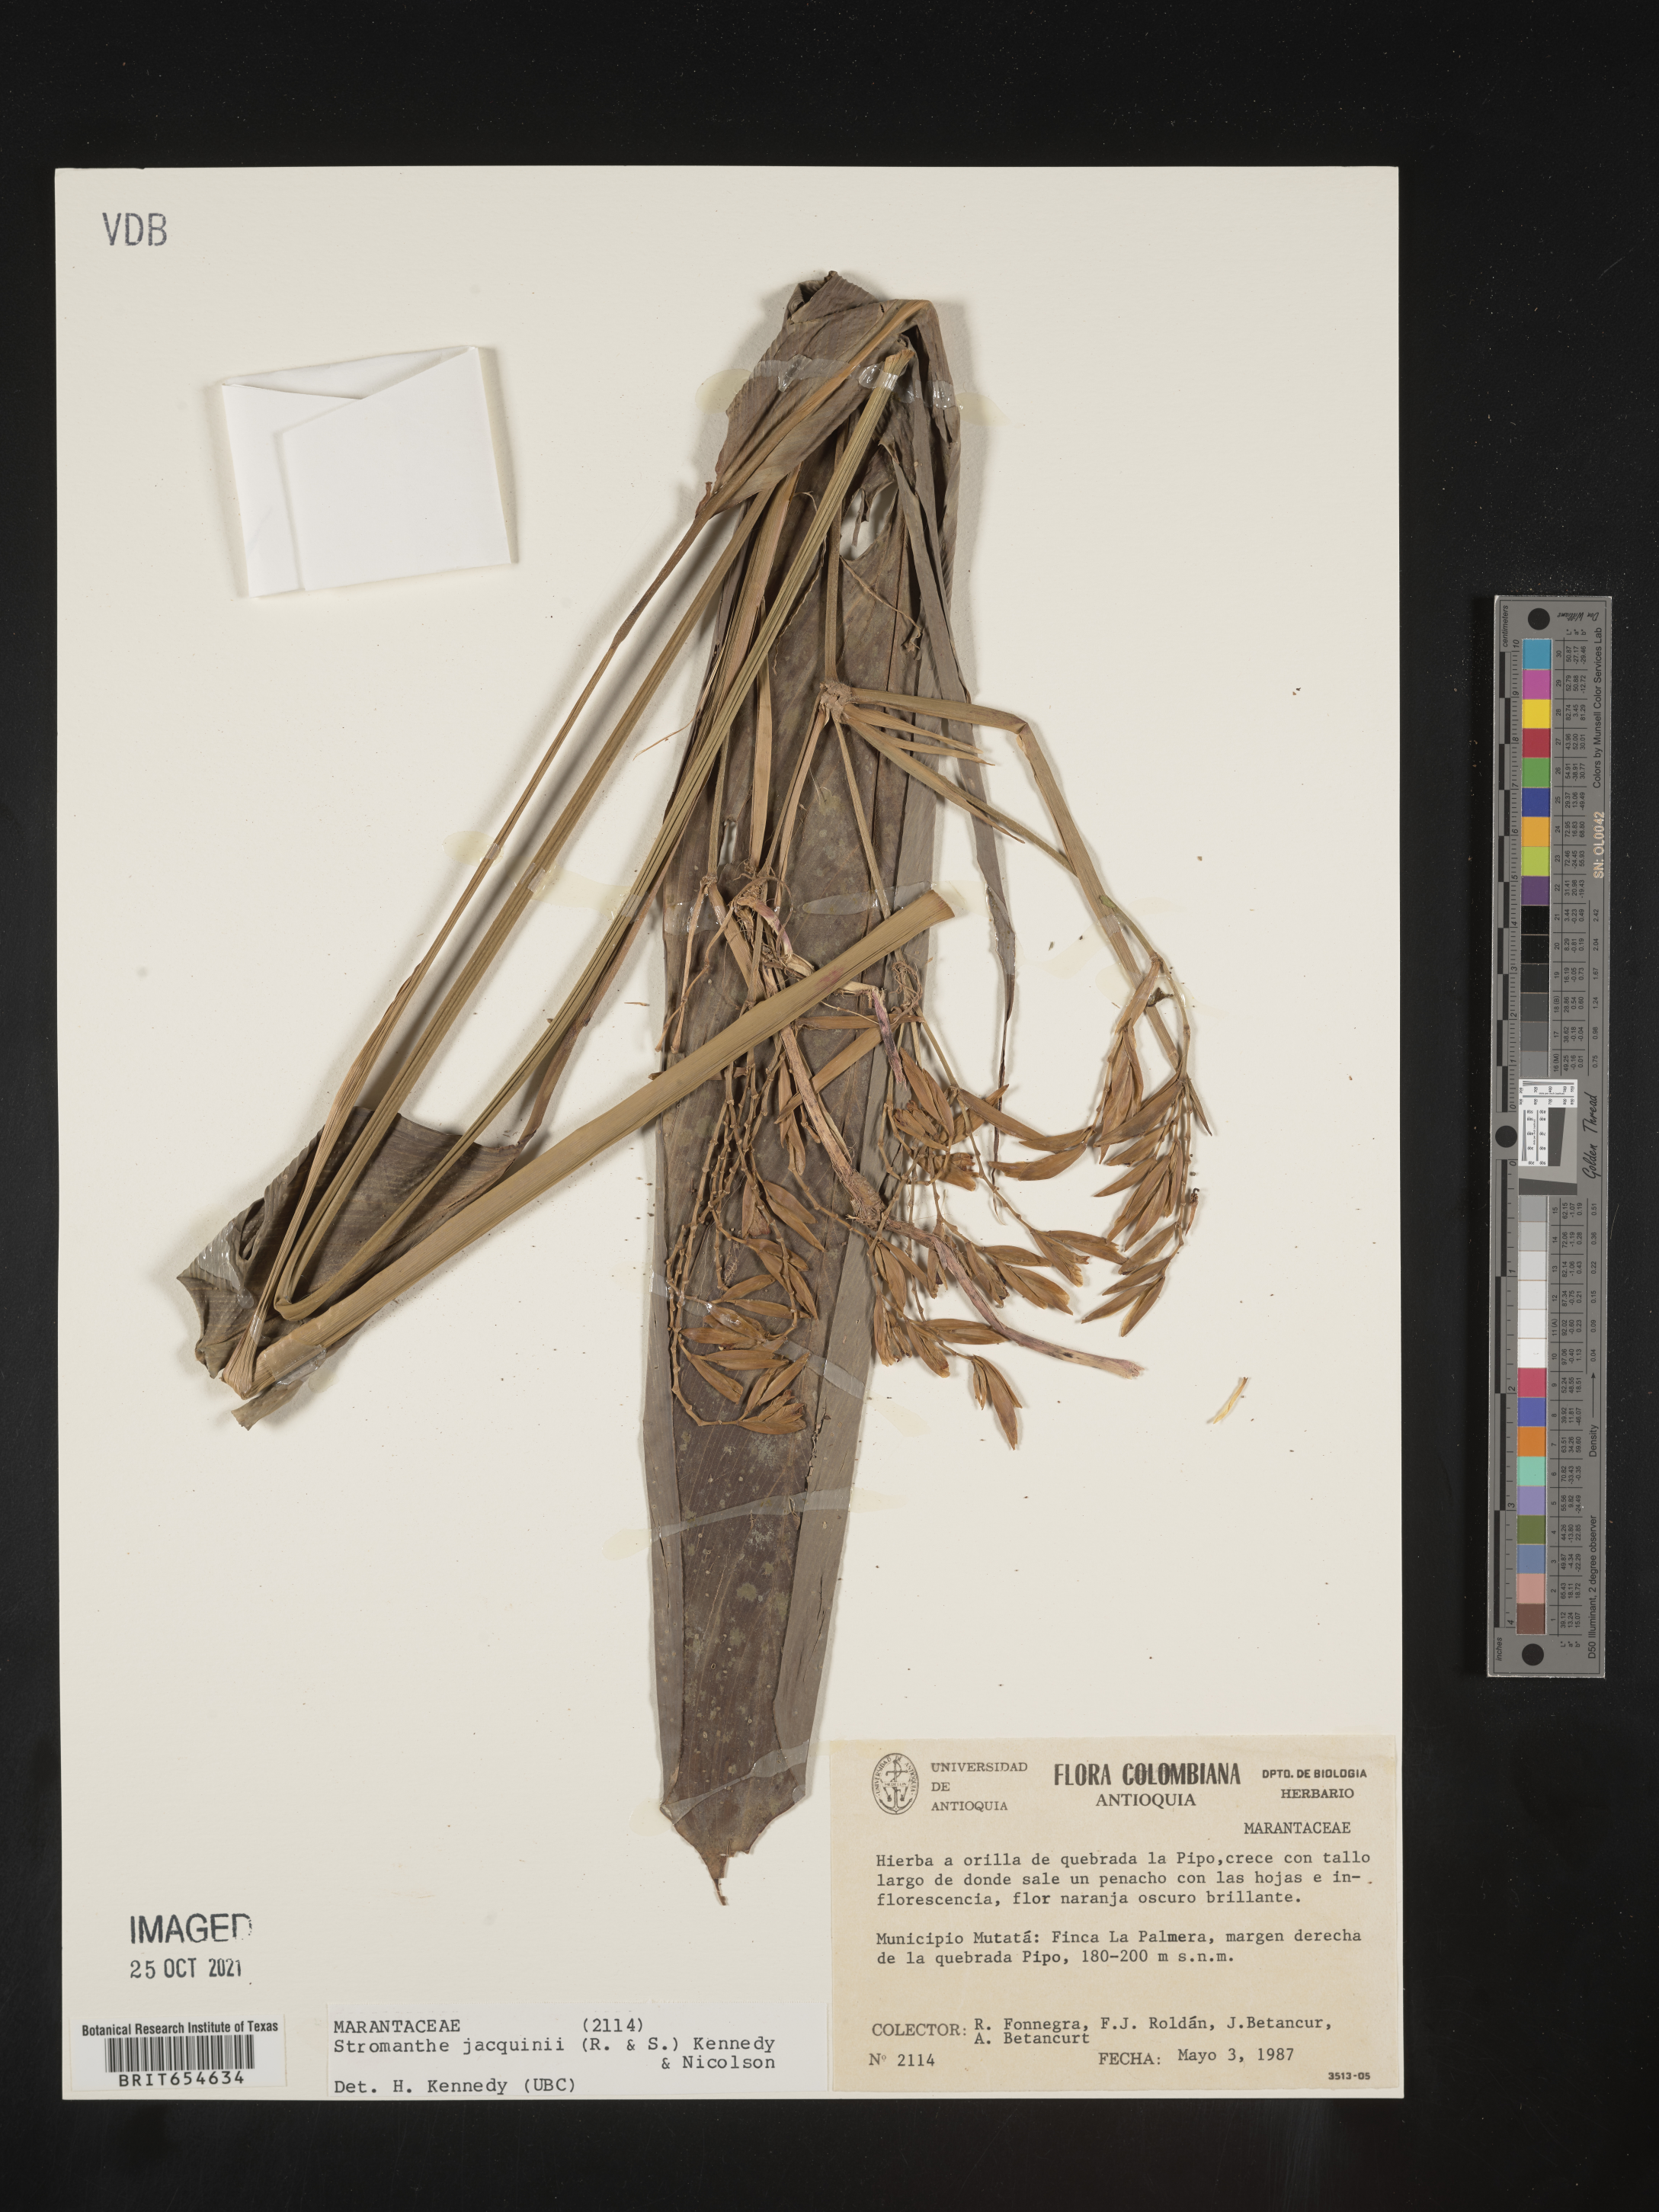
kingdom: Plantae
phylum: Tracheophyta
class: Liliopsida
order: Zingiberales
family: Marantaceae
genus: Stromanthe
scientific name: Stromanthe
